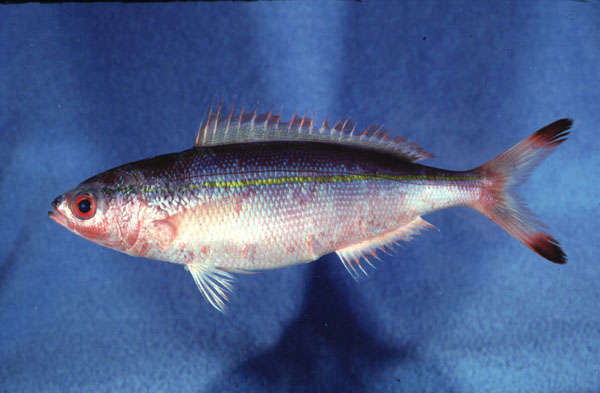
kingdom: Animalia
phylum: Chordata
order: Perciformes
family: Caesionidae
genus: Pterocaesio
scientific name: Pterocaesio digramma
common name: Double-lined fusilier
